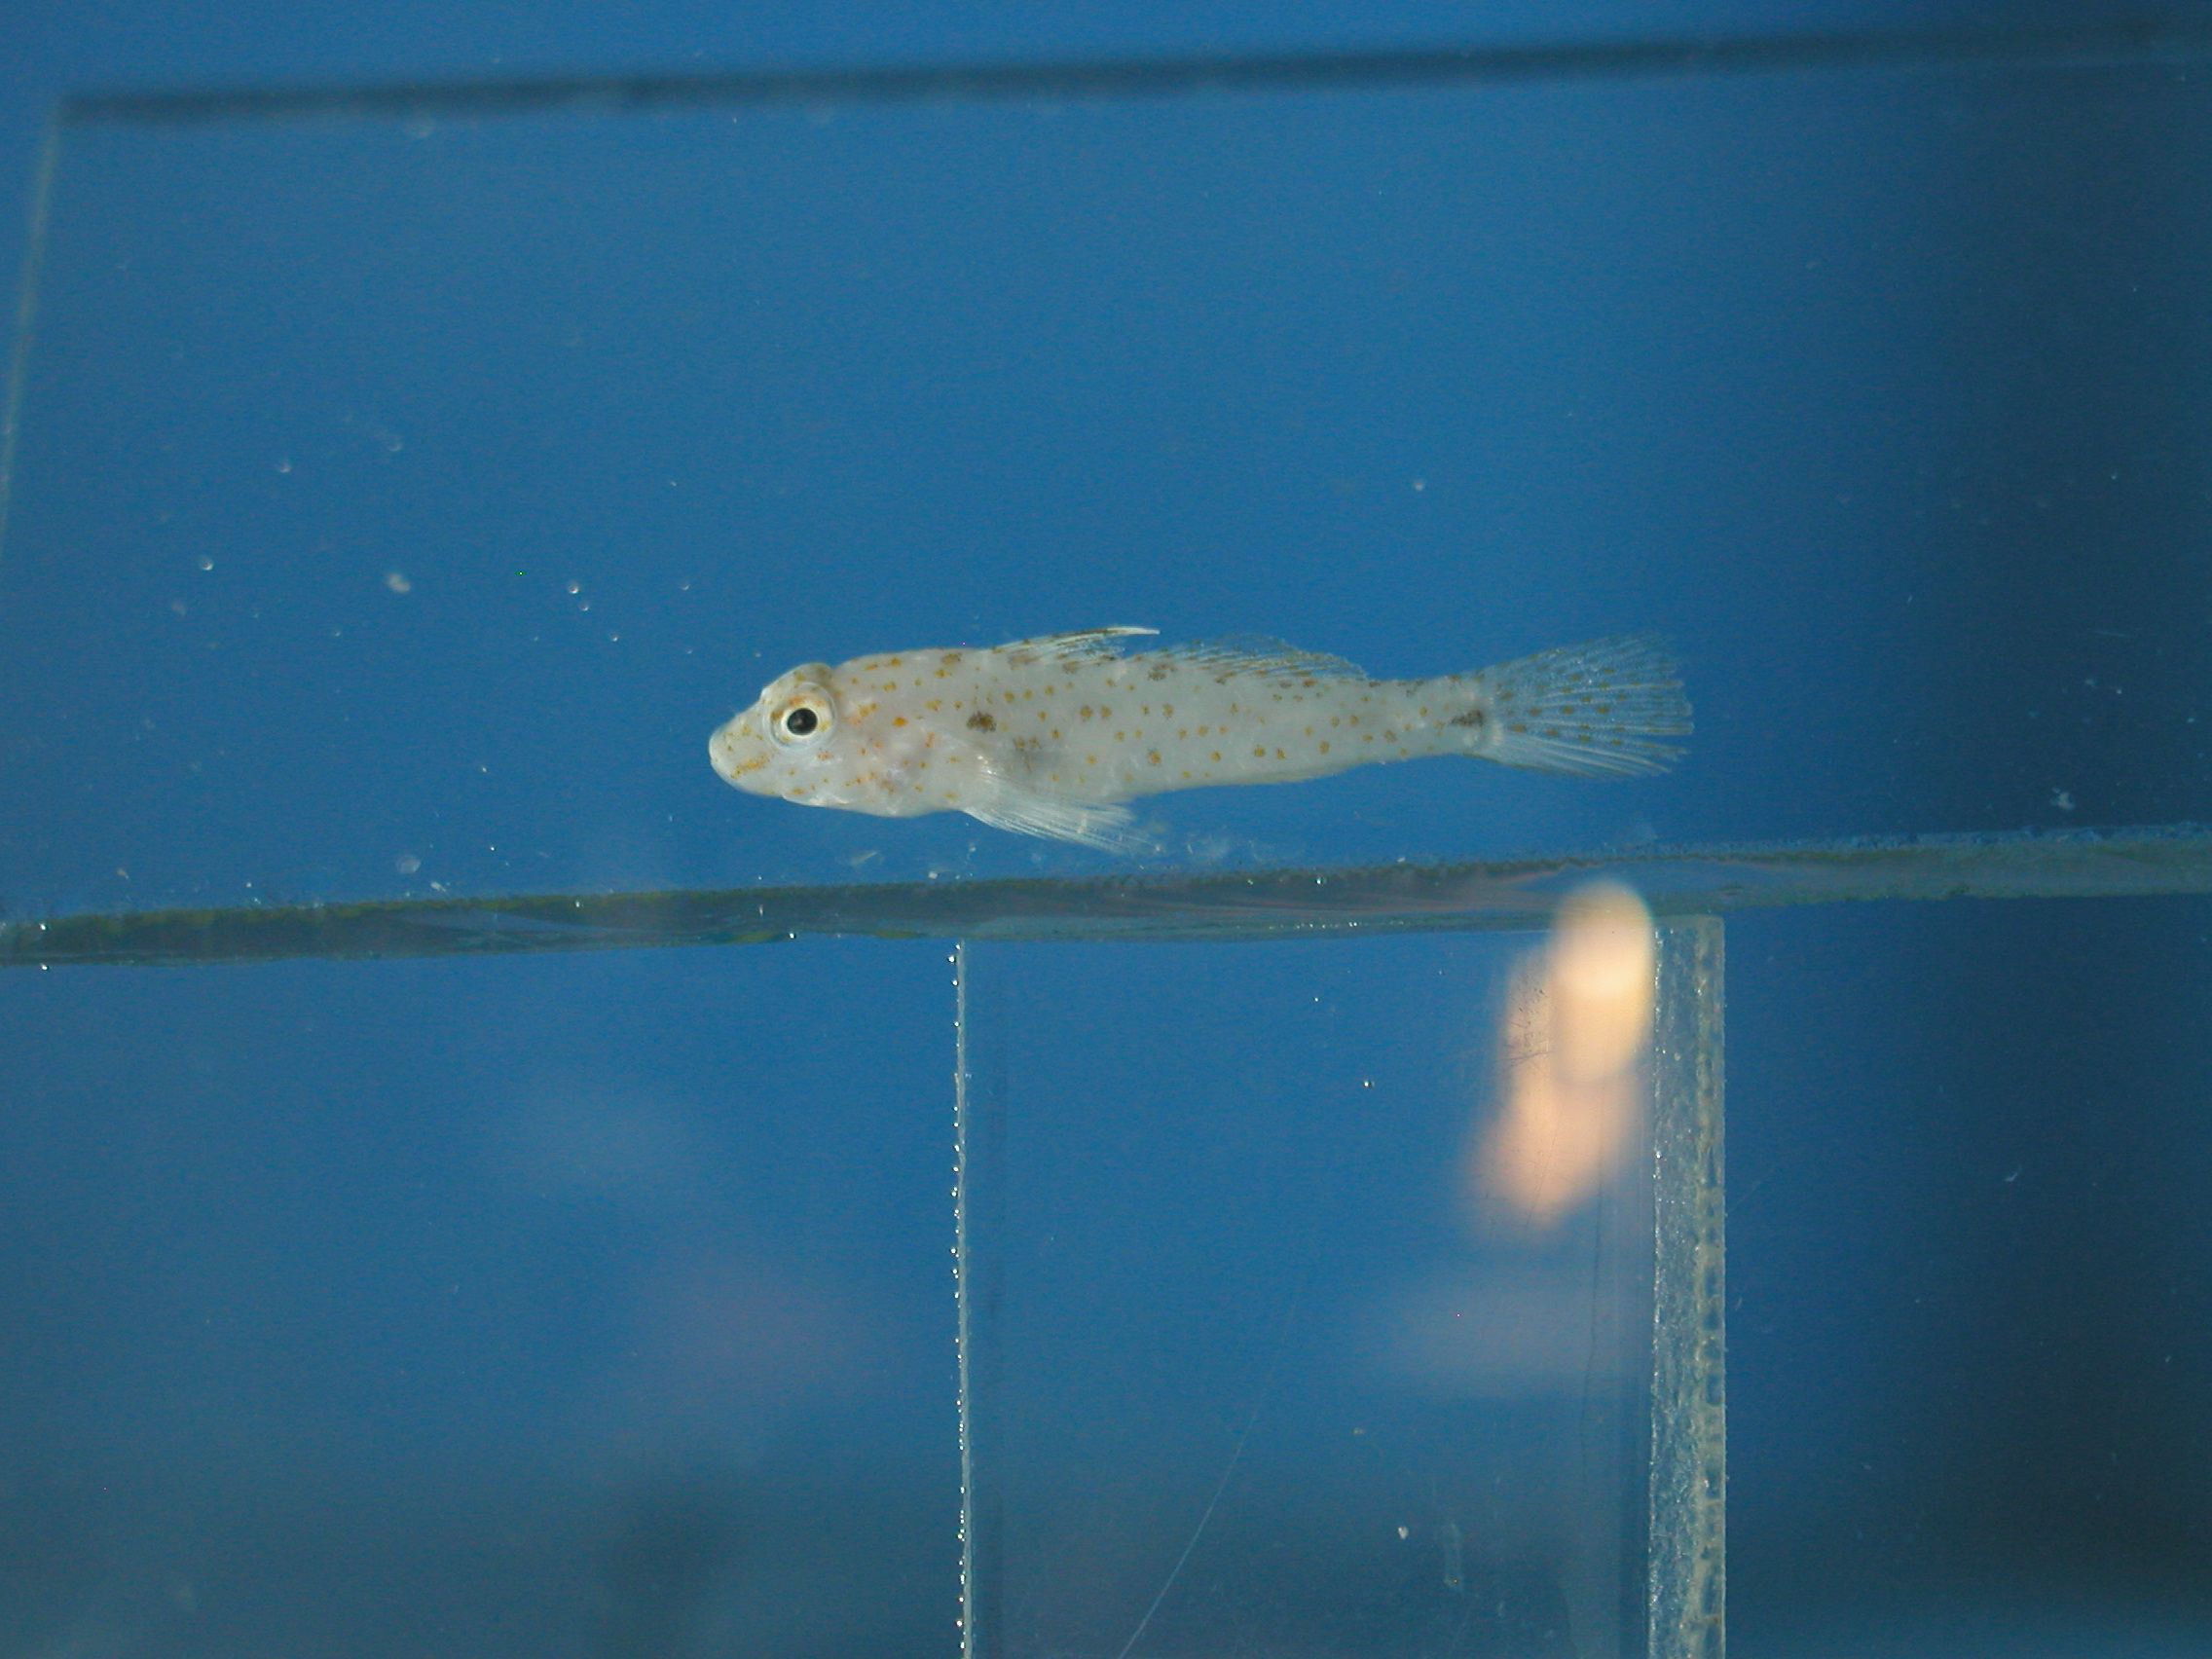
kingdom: Animalia
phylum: Chordata
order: Perciformes
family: Gobiidae
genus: Fusigobius
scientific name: Fusigobius humeralis
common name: Shoulderspot sandgoby
